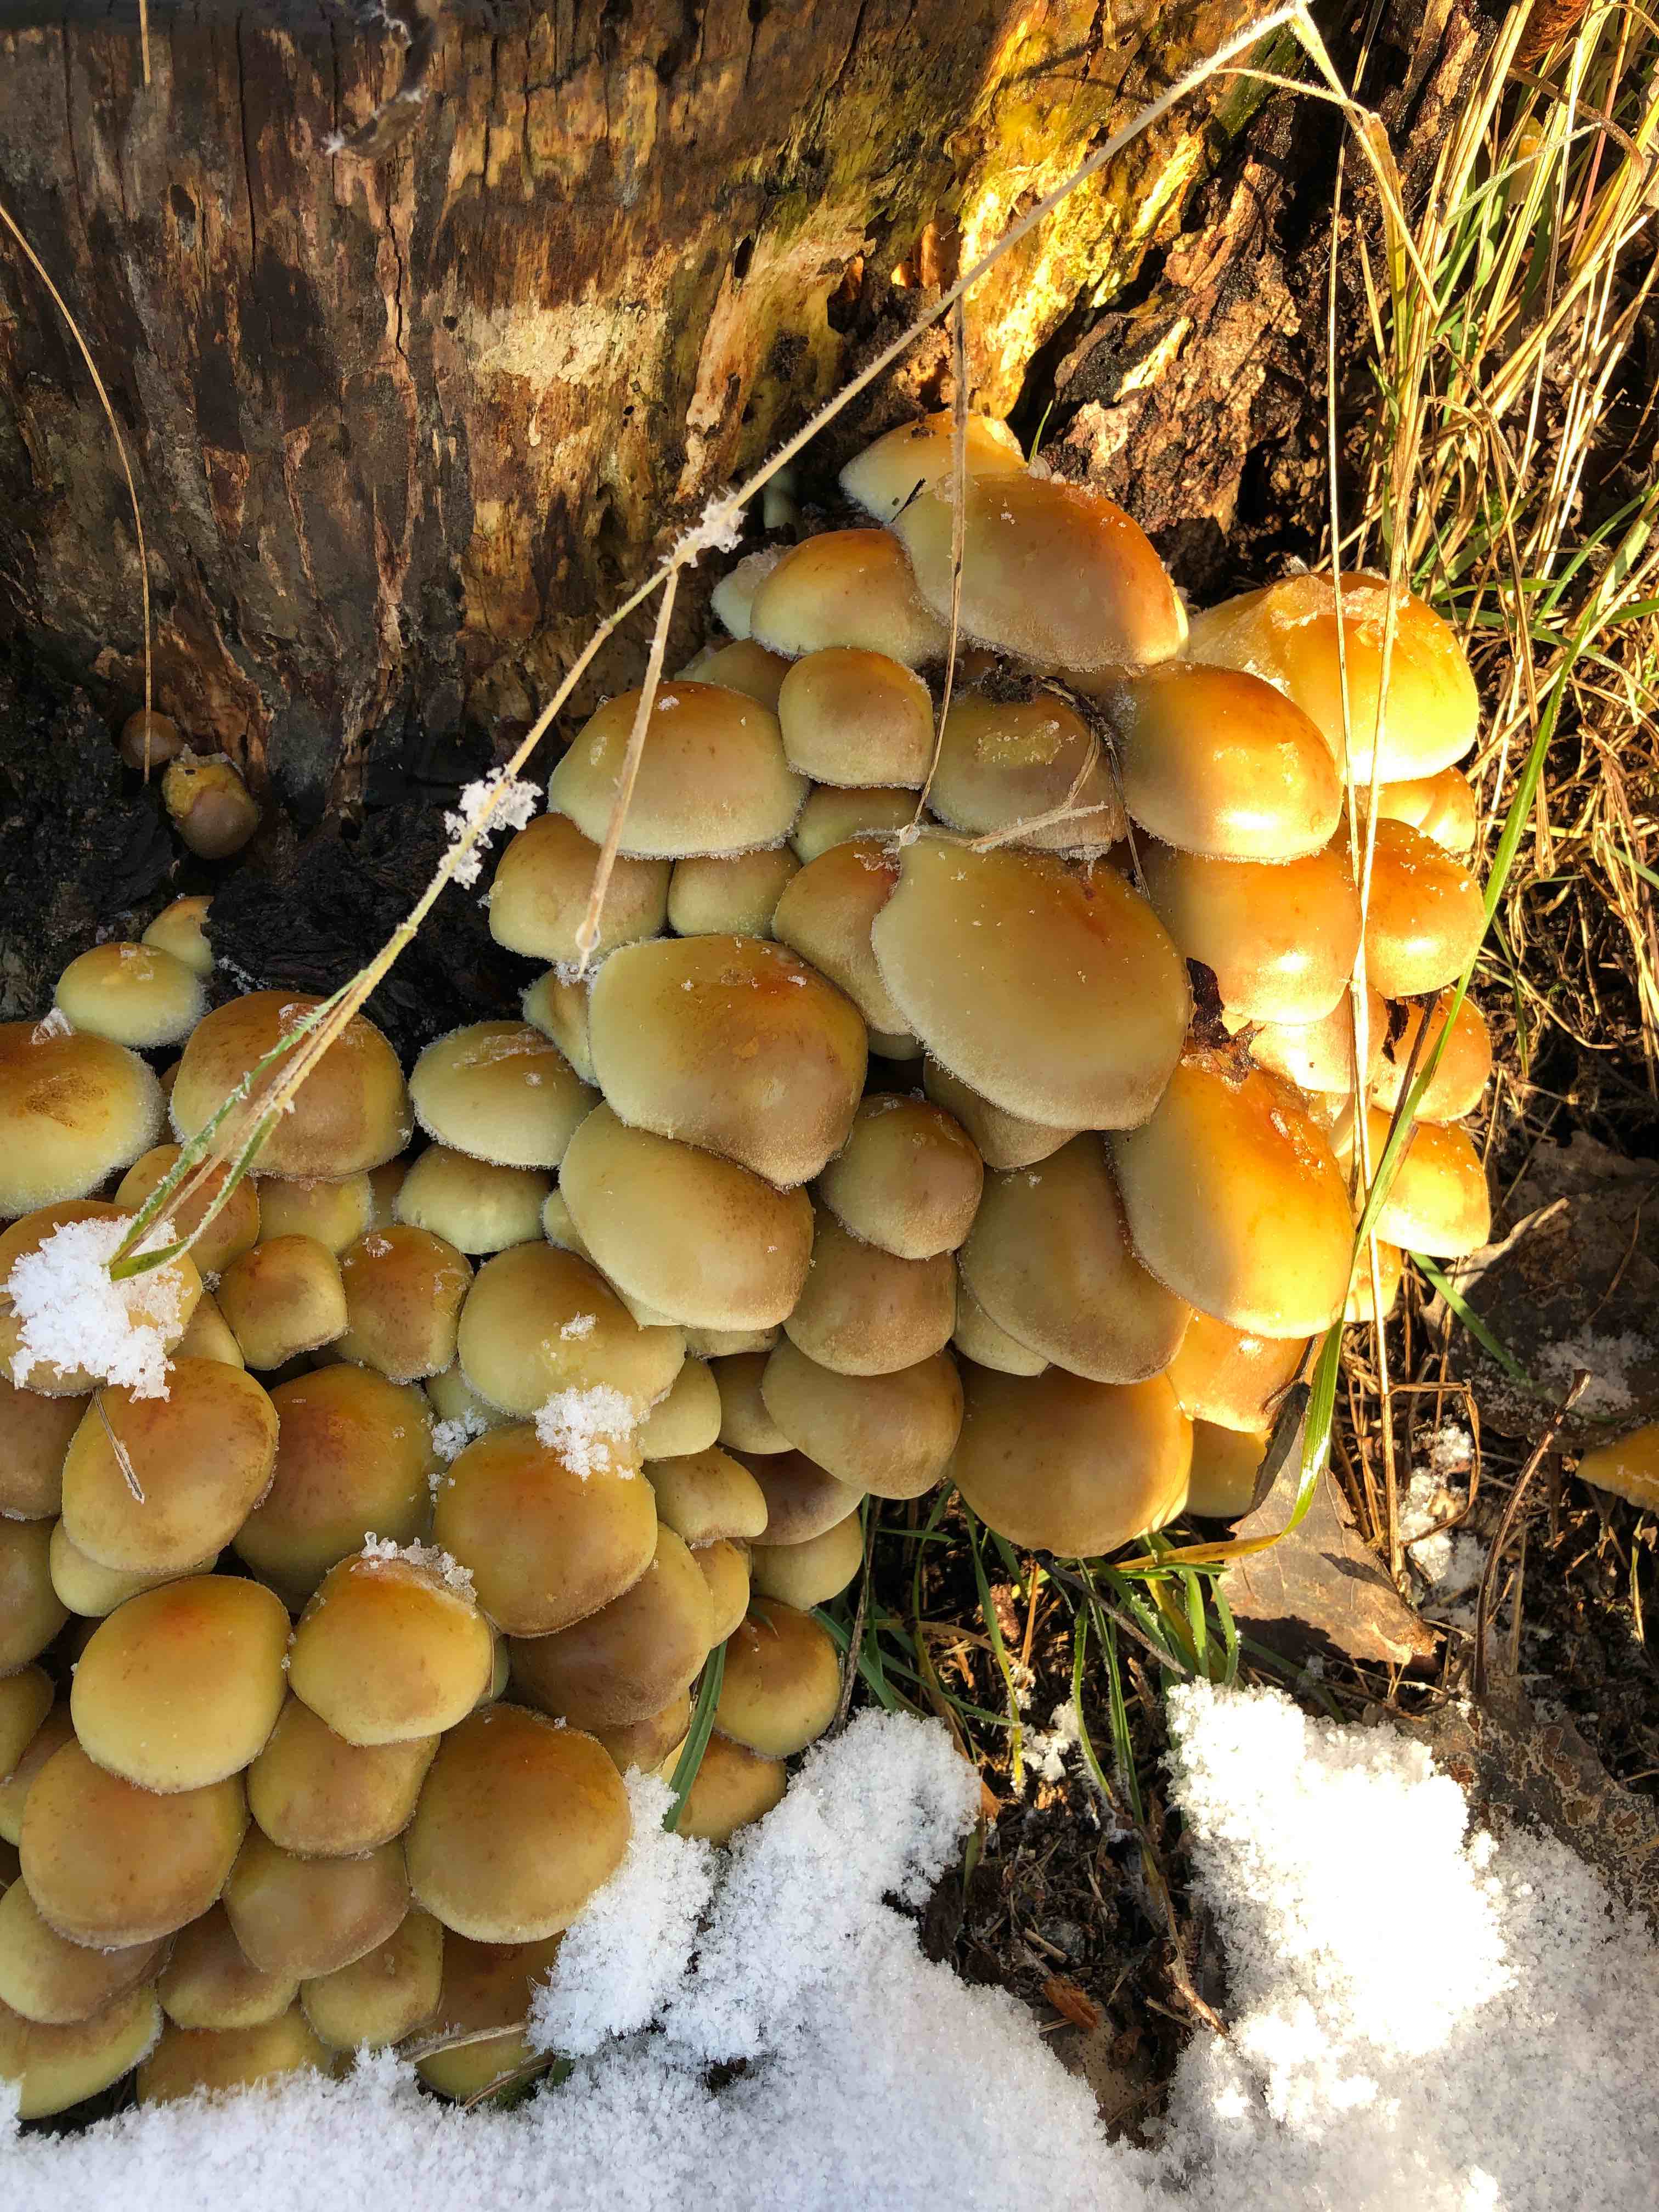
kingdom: Fungi
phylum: Basidiomycota
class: Agaricomycetes
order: Agaricales
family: Strophariaceae
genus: Hypholoma
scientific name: Hypholoma fasciculare
